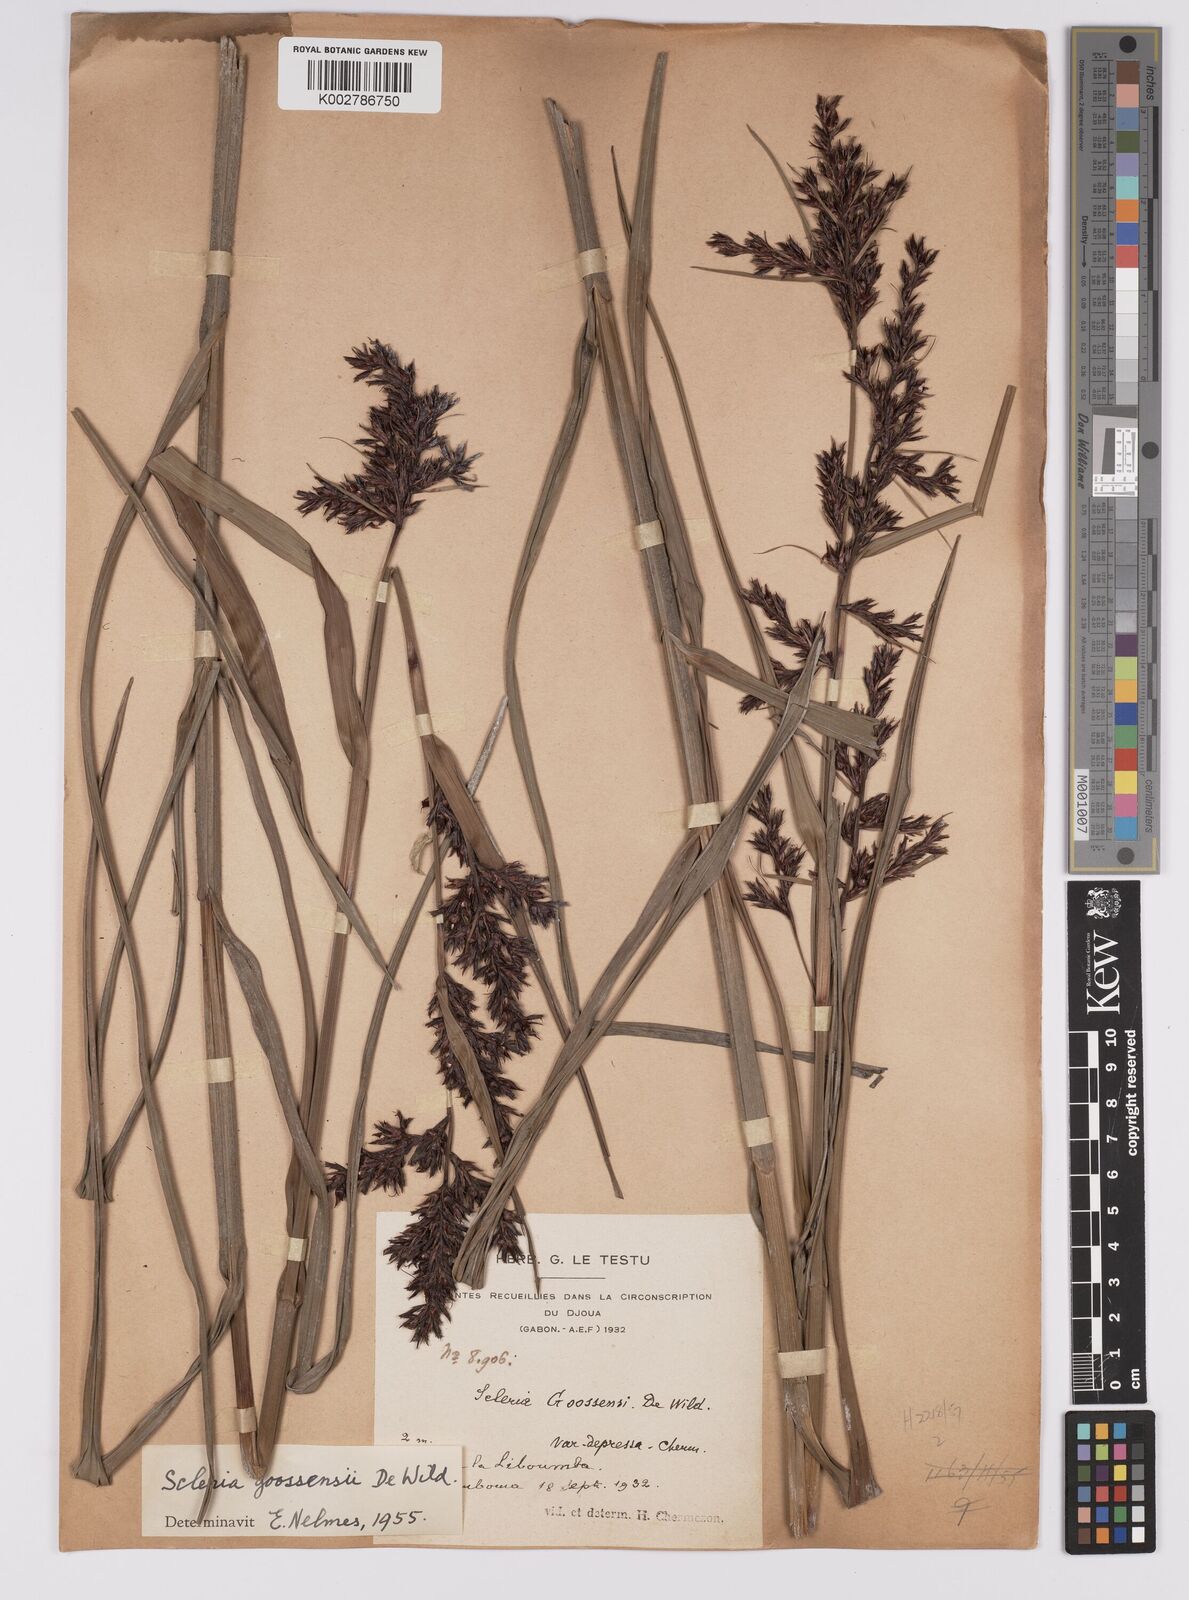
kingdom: Plantae
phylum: Tracheophyta
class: Liliopsida
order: Poales
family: Cyperaceae
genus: Scleria
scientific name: Scleria goossensii
